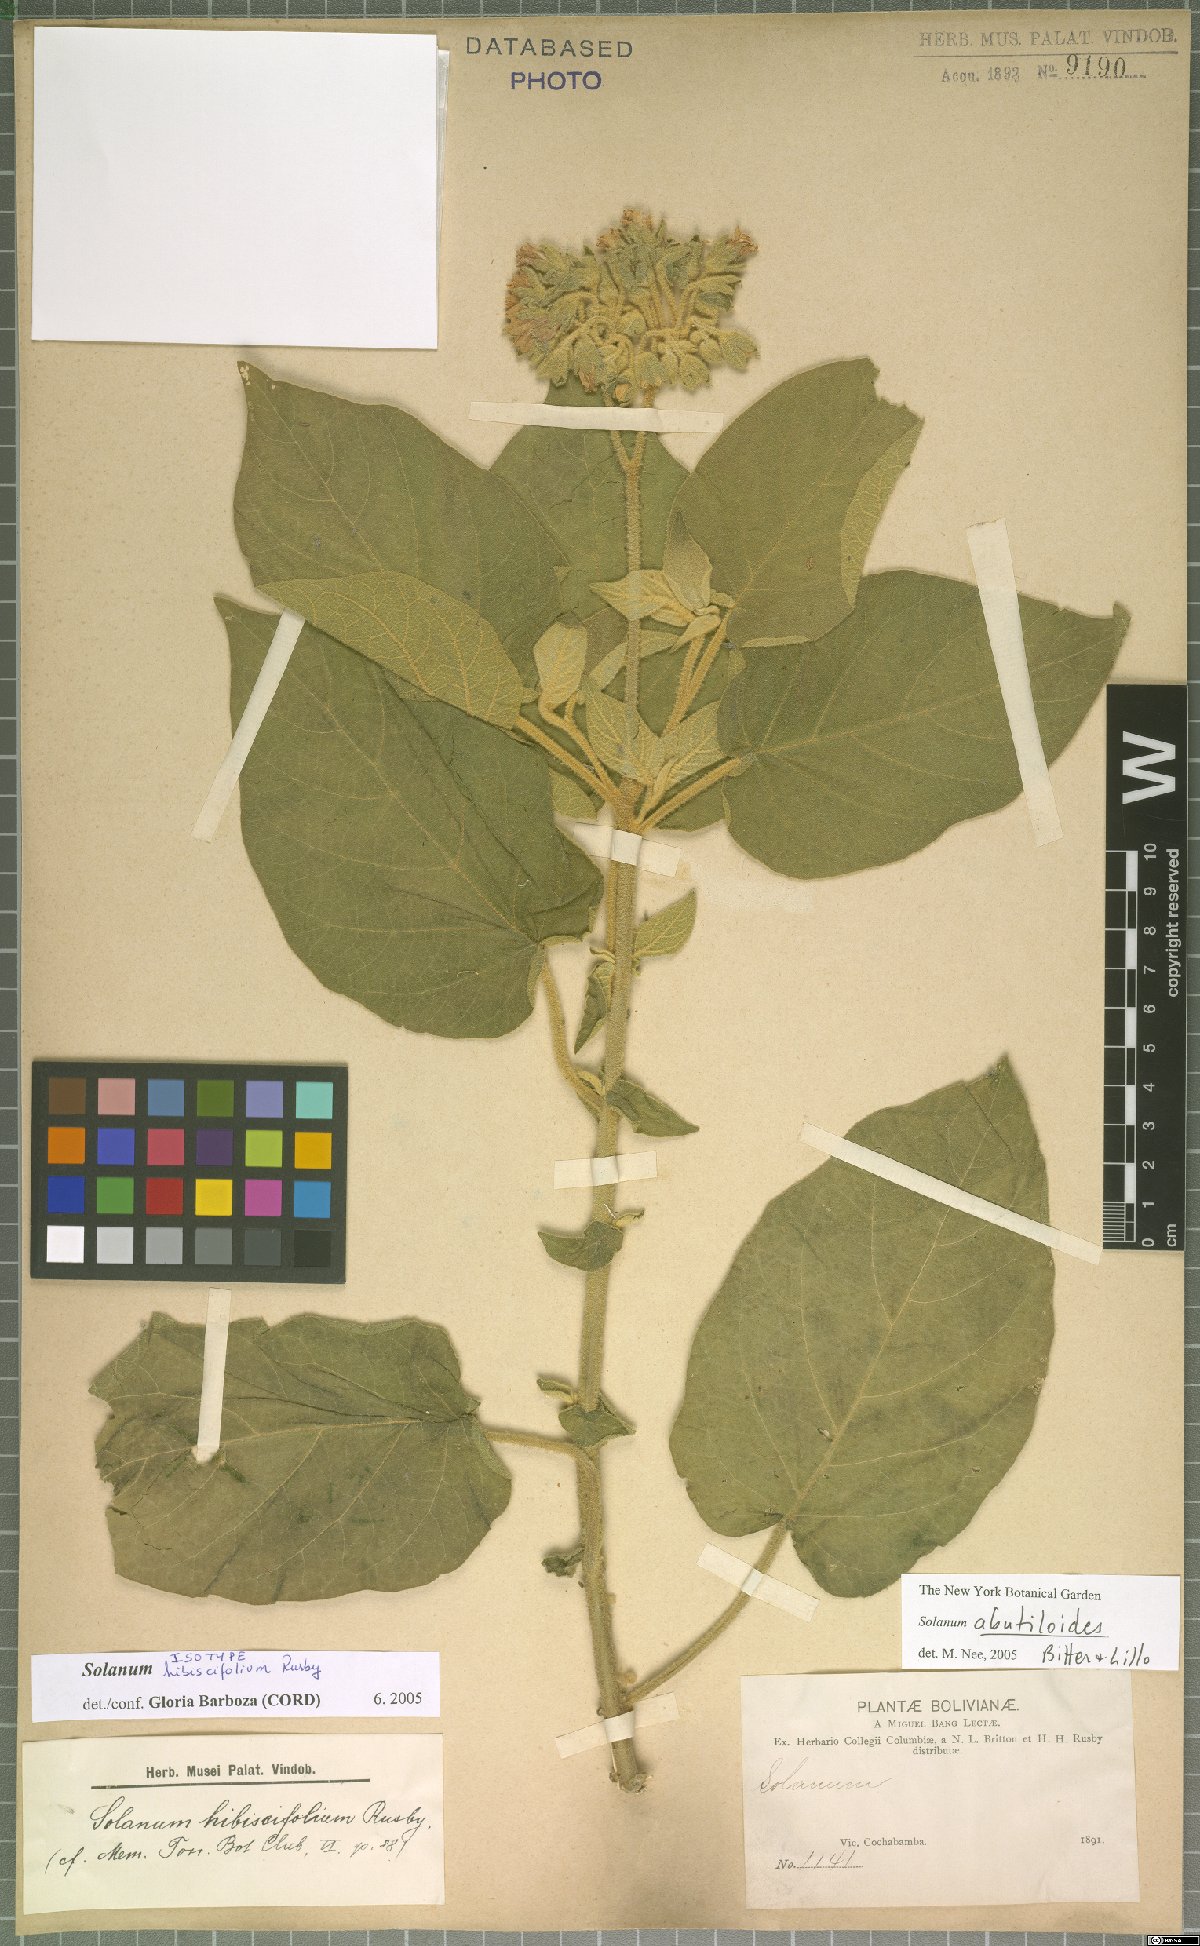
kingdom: Plantae
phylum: Tracheophyta
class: Magnoliopsida
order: Solanales
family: Solanaceae
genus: Solanum
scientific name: Solanum abutiloides
